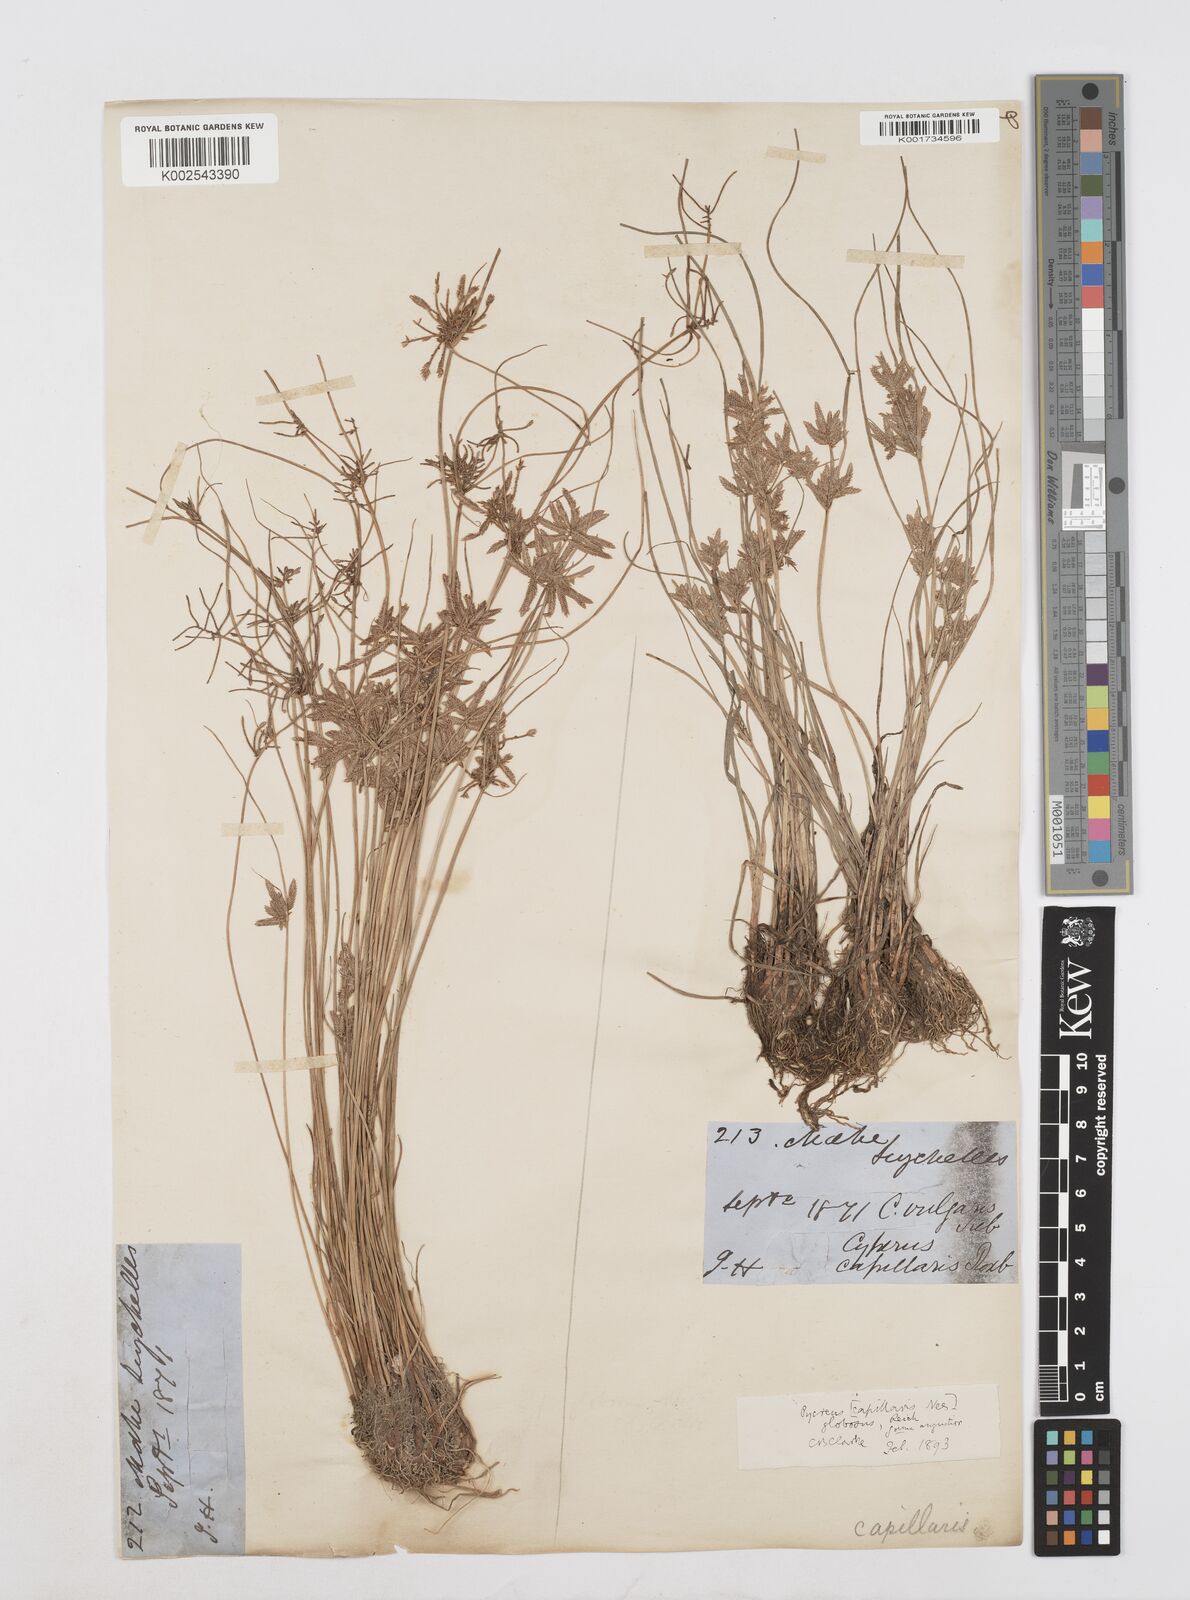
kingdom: Plantae
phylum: Tracheophyta
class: Liliopsida
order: Poales
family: Cyperaceae
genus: Cyperus
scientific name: Cyperus flavidus
